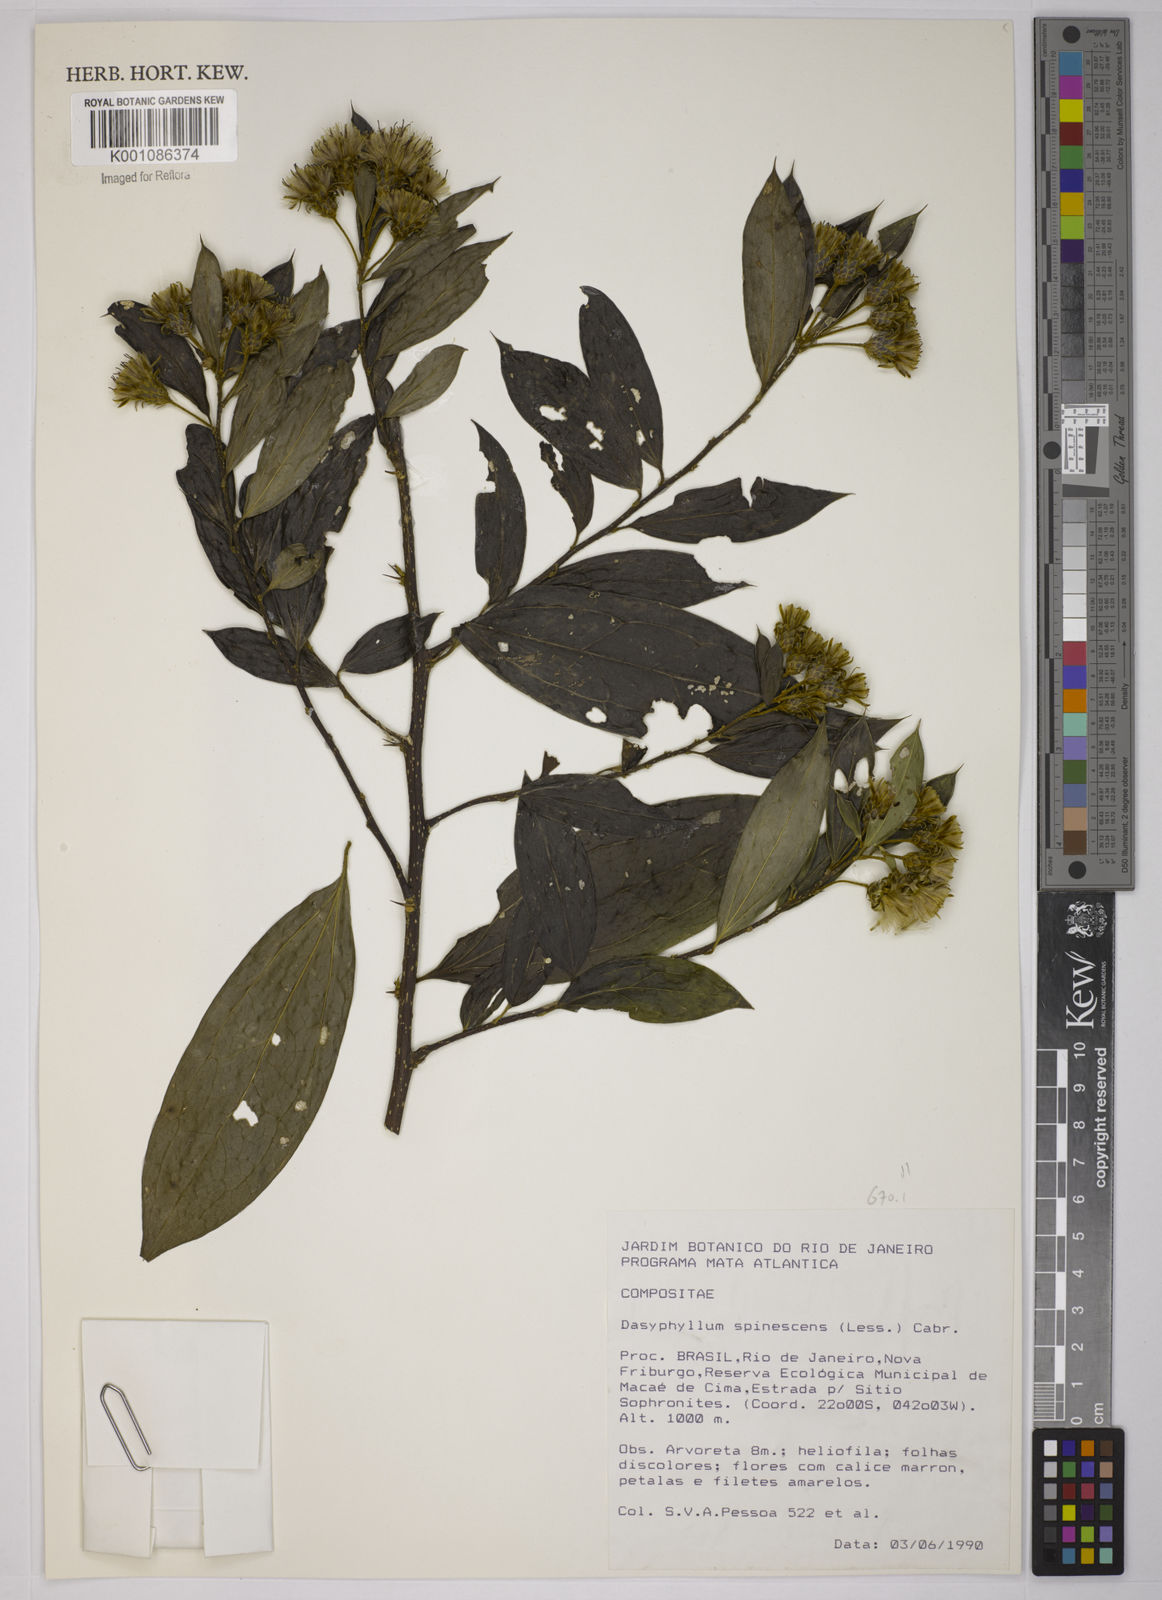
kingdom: Plantae
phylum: Tracheophyta
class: Magnoliopsida
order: Asterales
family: Asteraceae
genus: Dasyphyllum
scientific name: Dasyphyllum spinescens
